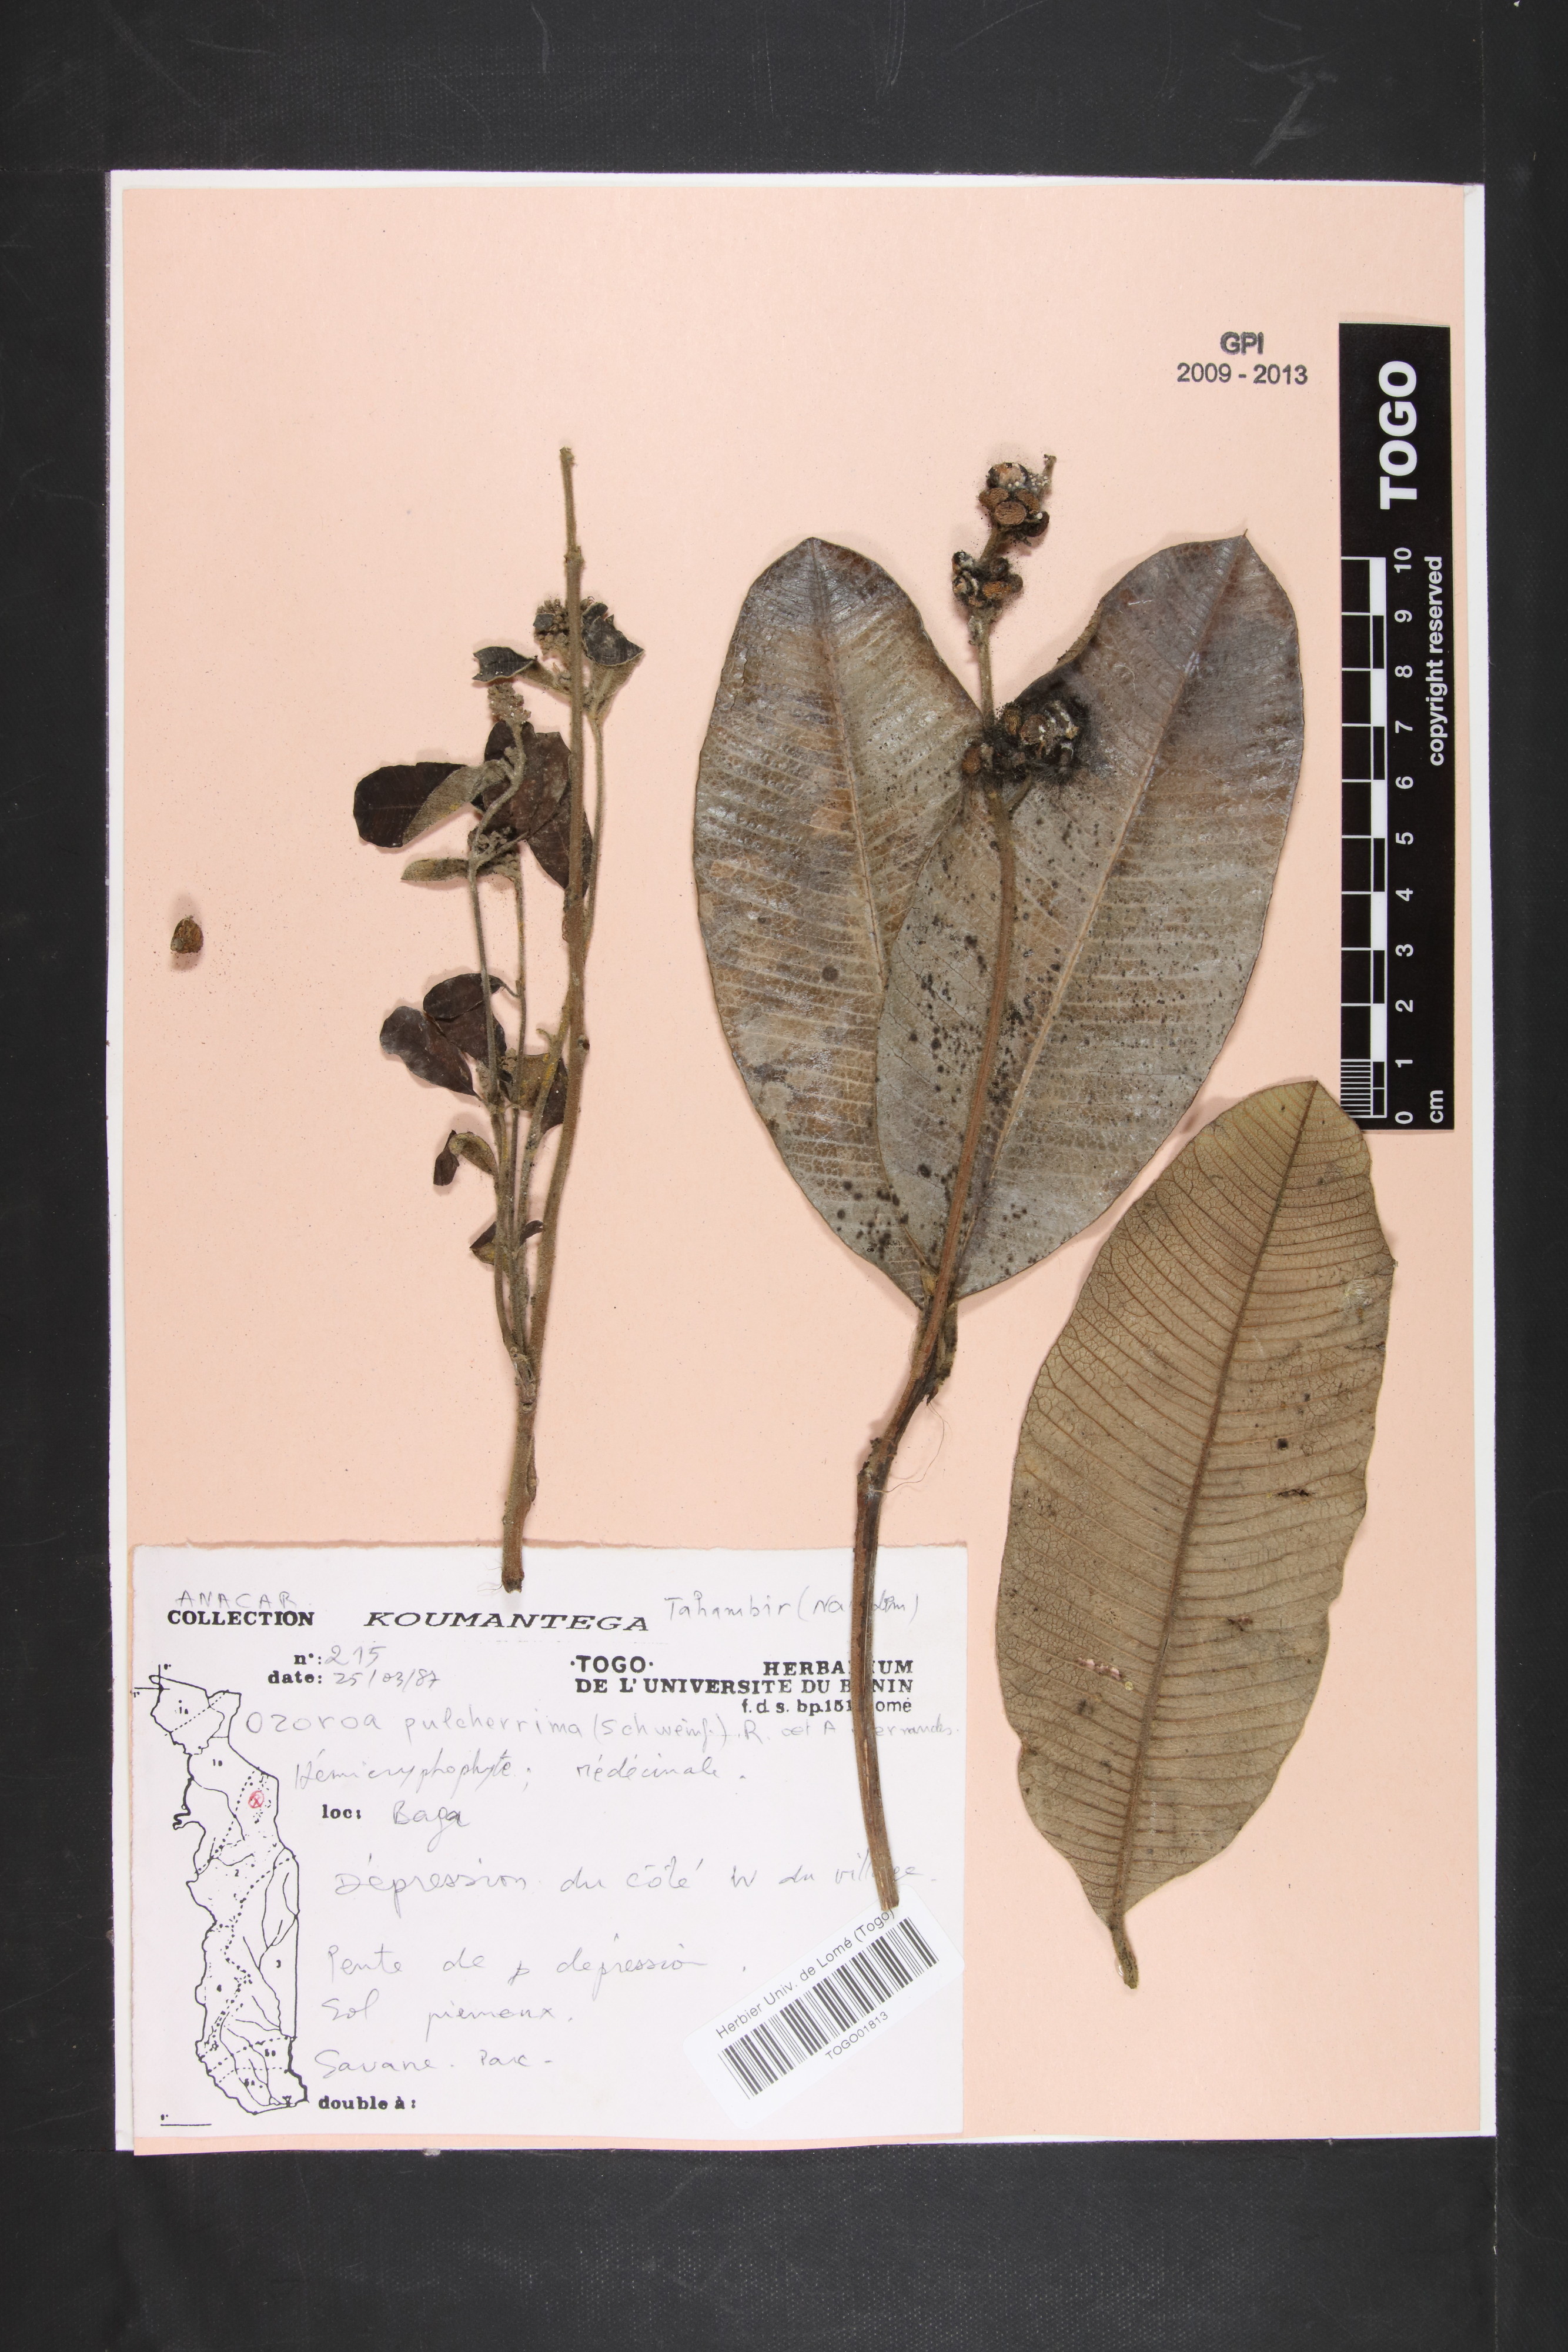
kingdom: Plantae
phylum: Tracheophyta
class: Magnoliopsida
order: Sapindales
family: Anacardiaceae
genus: Ozoroa
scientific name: Ozoroa pulcherrima
